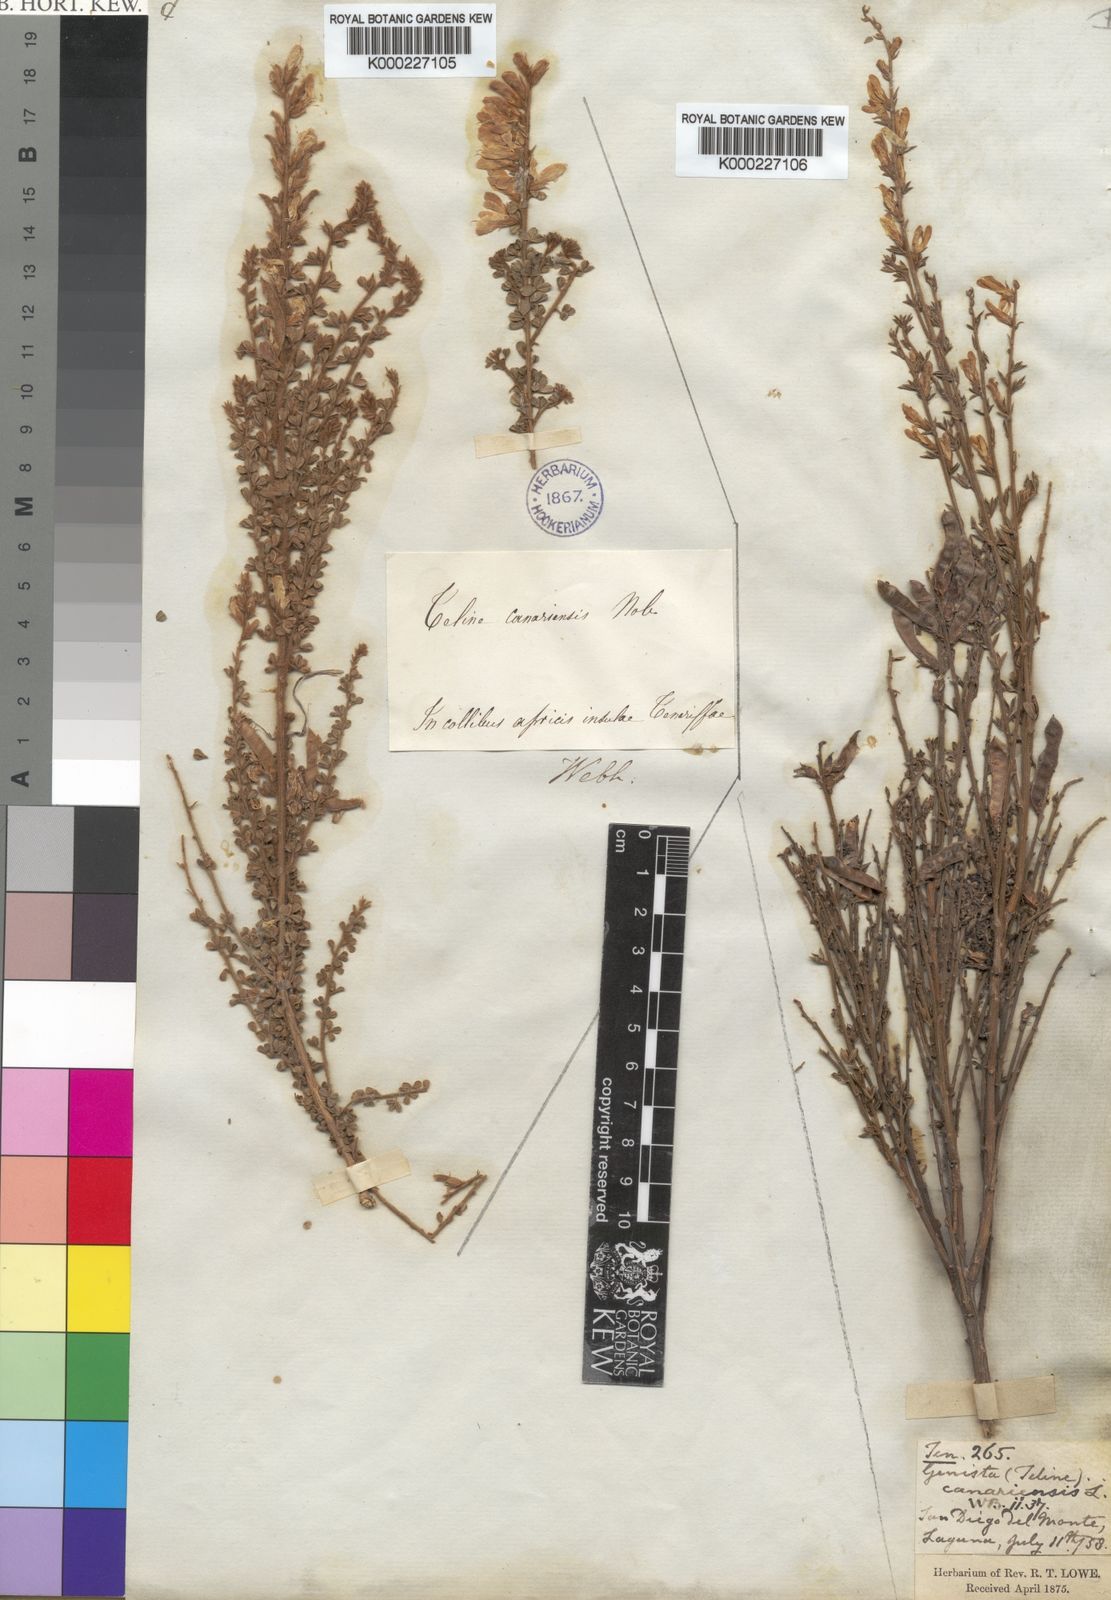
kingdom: Plantae
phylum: Tracheophyta
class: Magnoliopsida
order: Fabales
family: Fabaceae
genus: Genista
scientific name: Genista canariensis
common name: Canary broom
